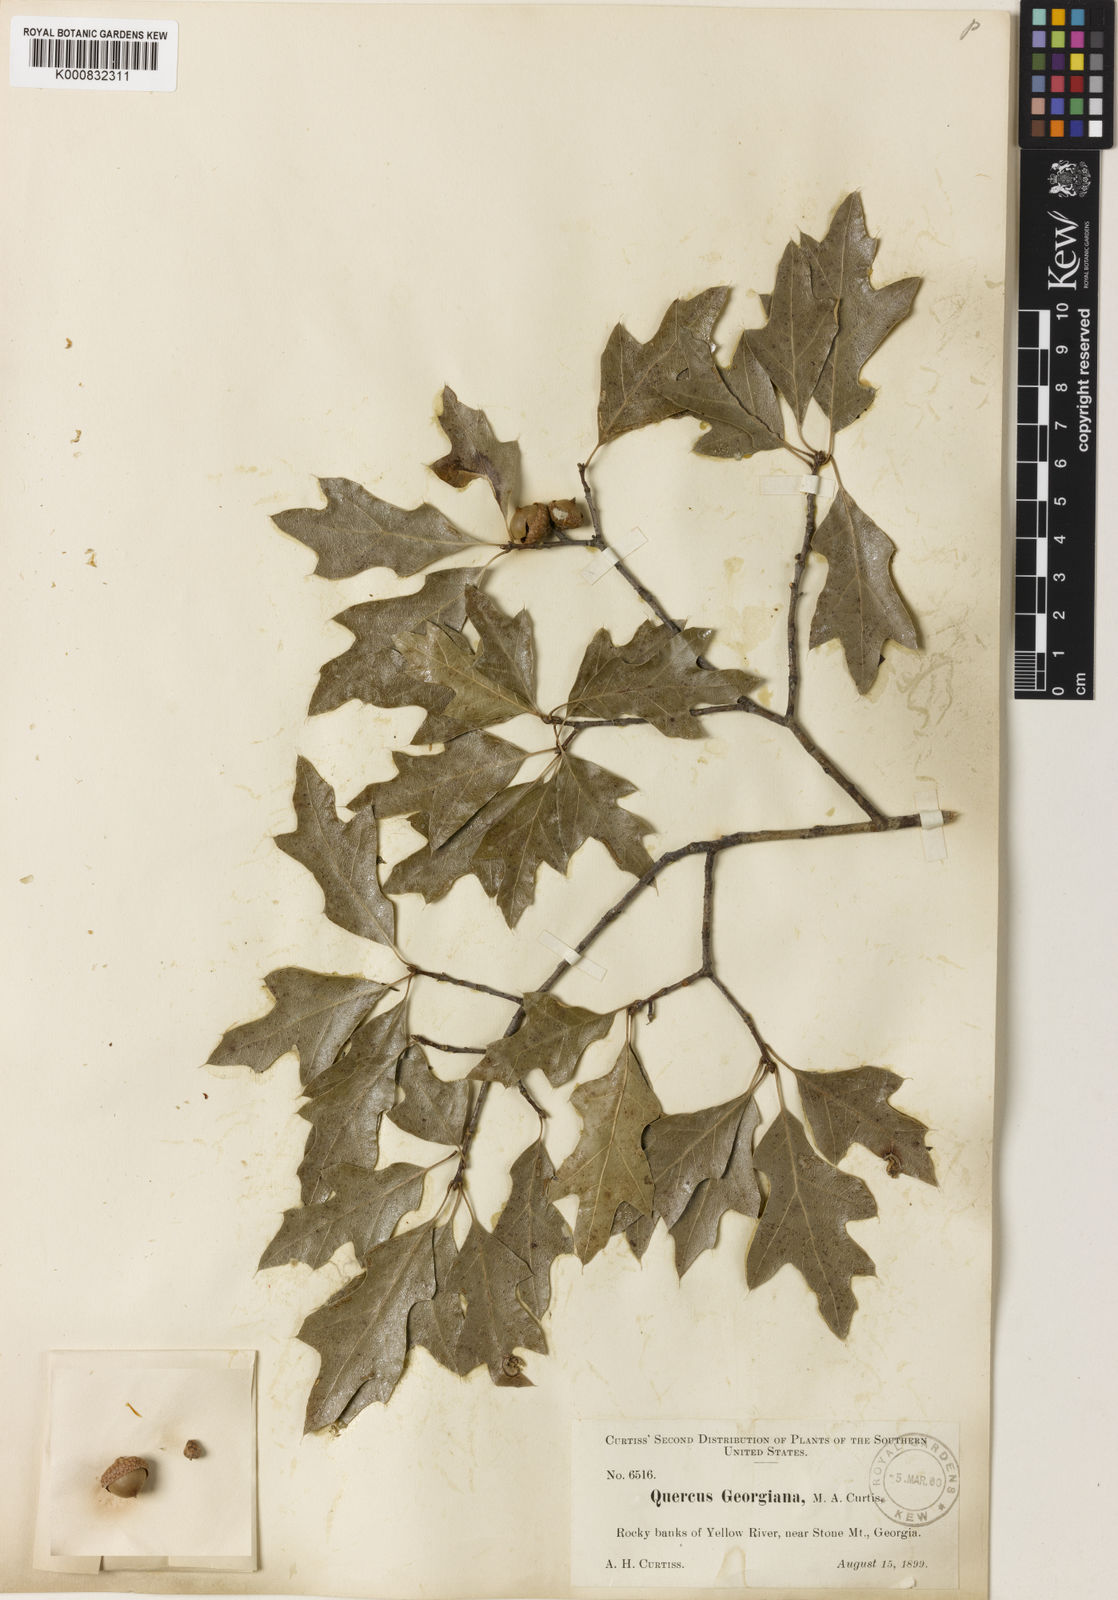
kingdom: Plantae
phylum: Tracheophyta
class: Magnoliopsida
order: Fagales
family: Fagaceae
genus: Quercus
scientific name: Quercus georgiana
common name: Georgia oak
